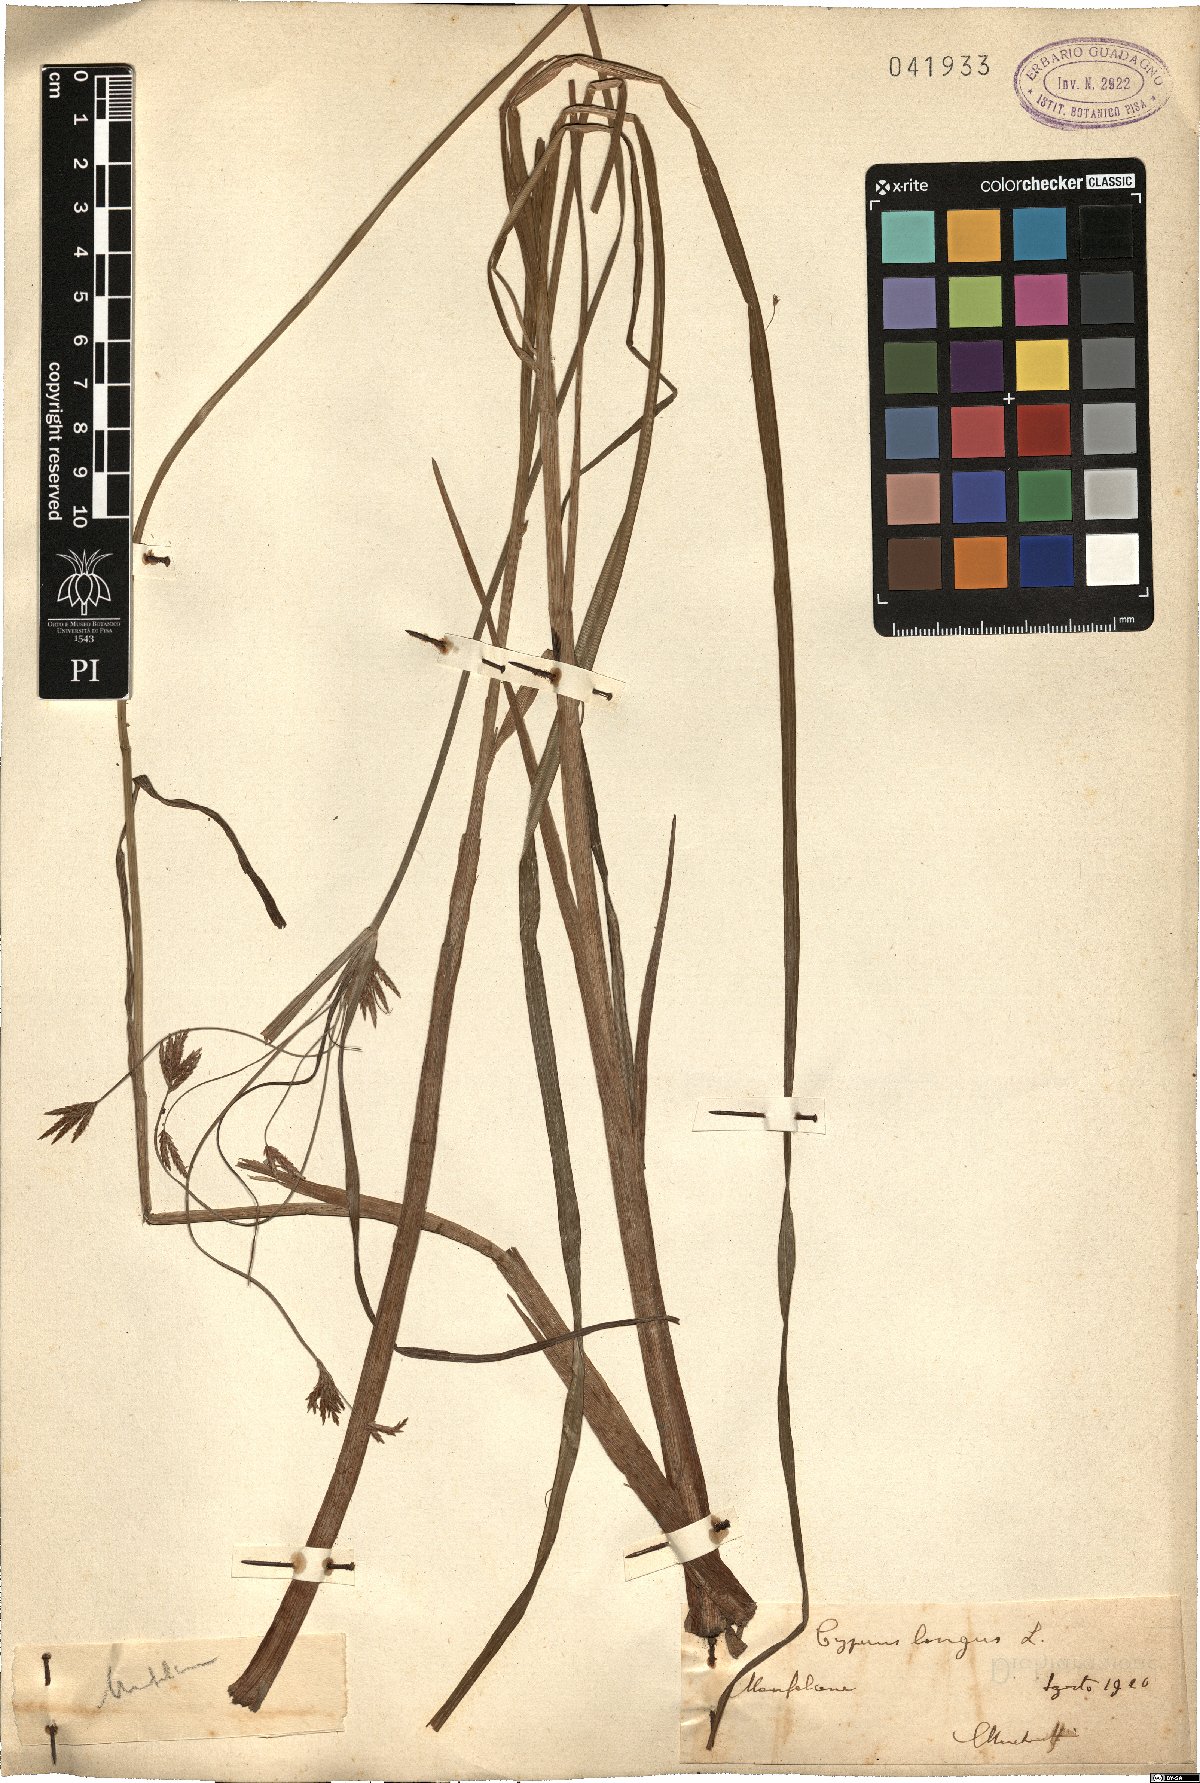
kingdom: Plantae
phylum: Tracheophyta
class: Liliopsida
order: Poales
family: Cyperaceae
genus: Cyperus
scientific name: Cyperus longus
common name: Galingale
